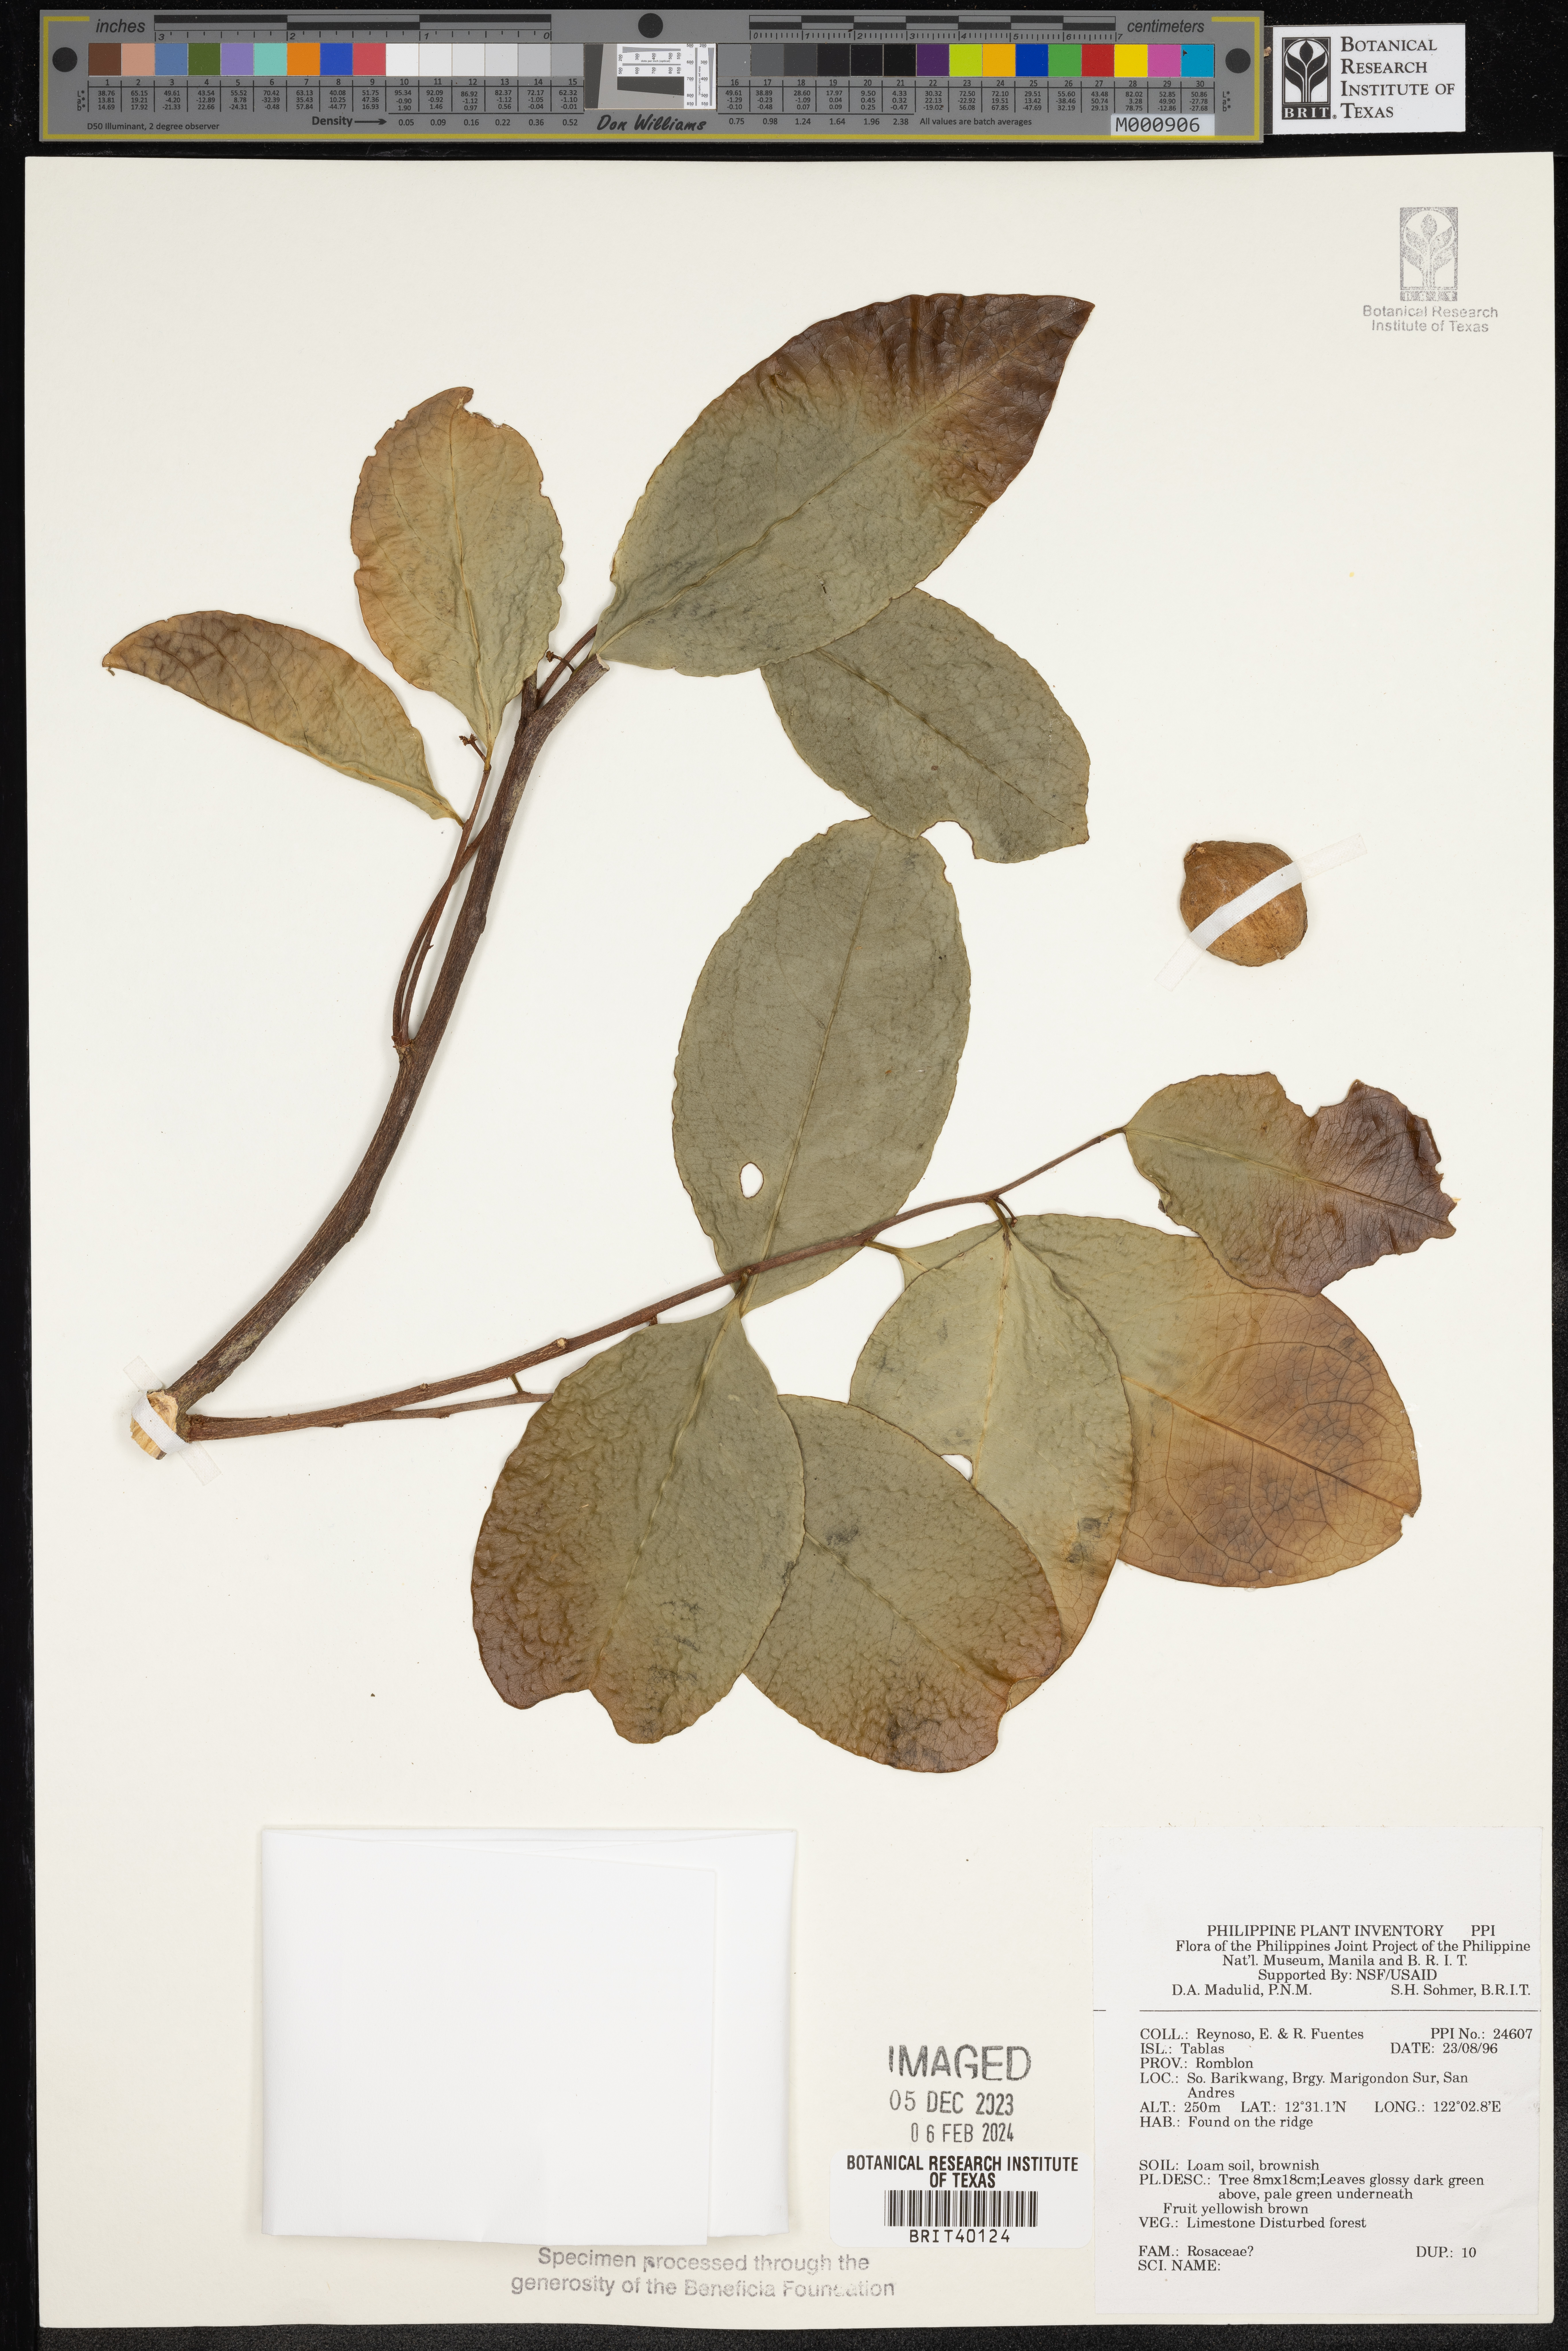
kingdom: Plantae
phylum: Tracheophyta
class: Magnoliopsida
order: Rosales
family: Rosaceae
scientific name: Rosaceae
